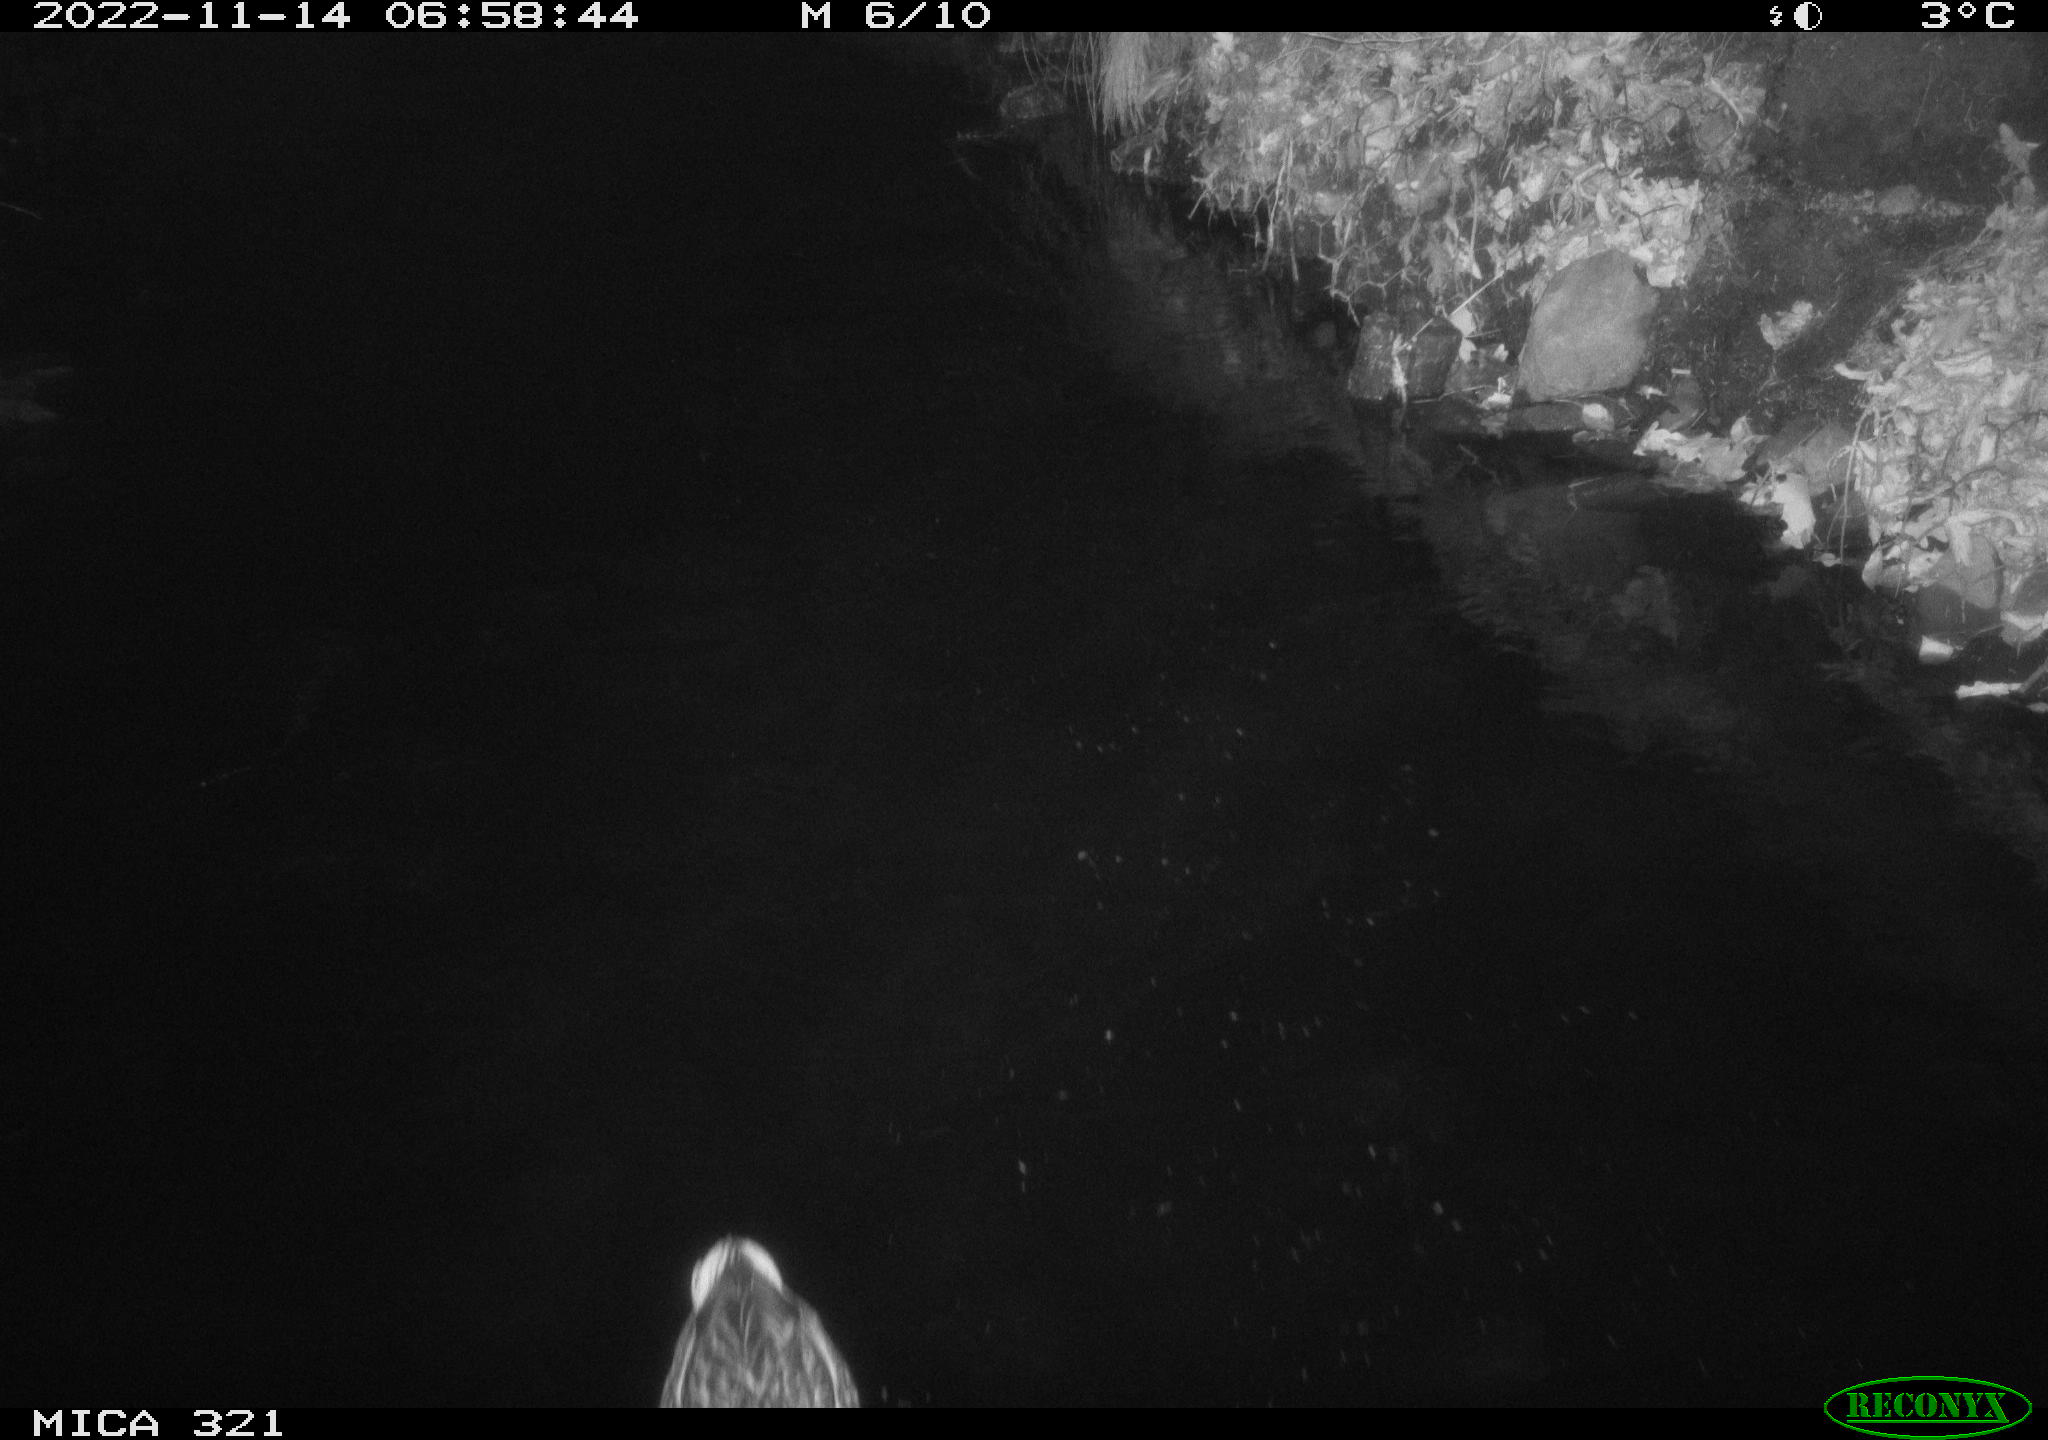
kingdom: Animalia
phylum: Chordata
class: Aves
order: Anseriformes
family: Anatidae
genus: Anas
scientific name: Anas
